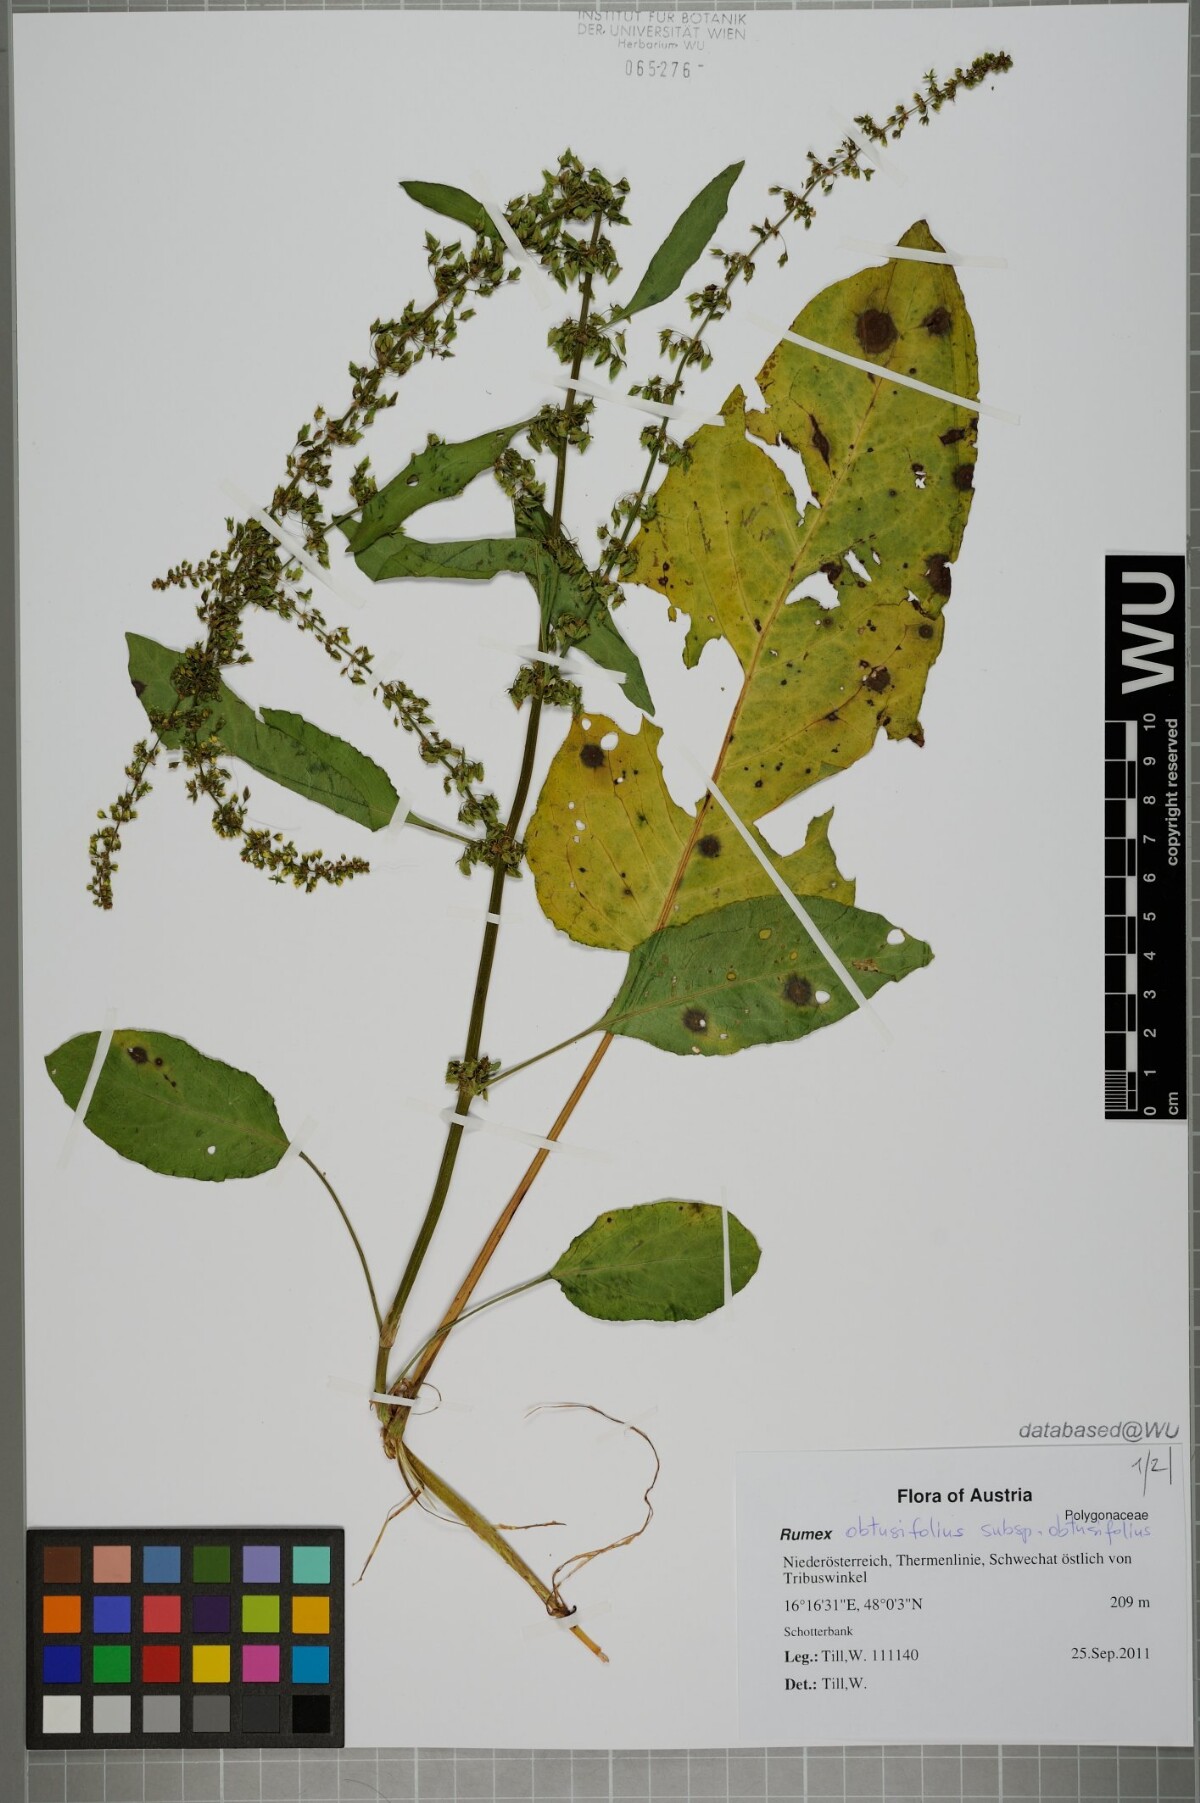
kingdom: Plantae
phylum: Tracheophyta
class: Magnoliopsida
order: Caryophyllales
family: Polygonaceae
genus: Rumex
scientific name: Rumex obtusifolius
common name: Bitter dock
